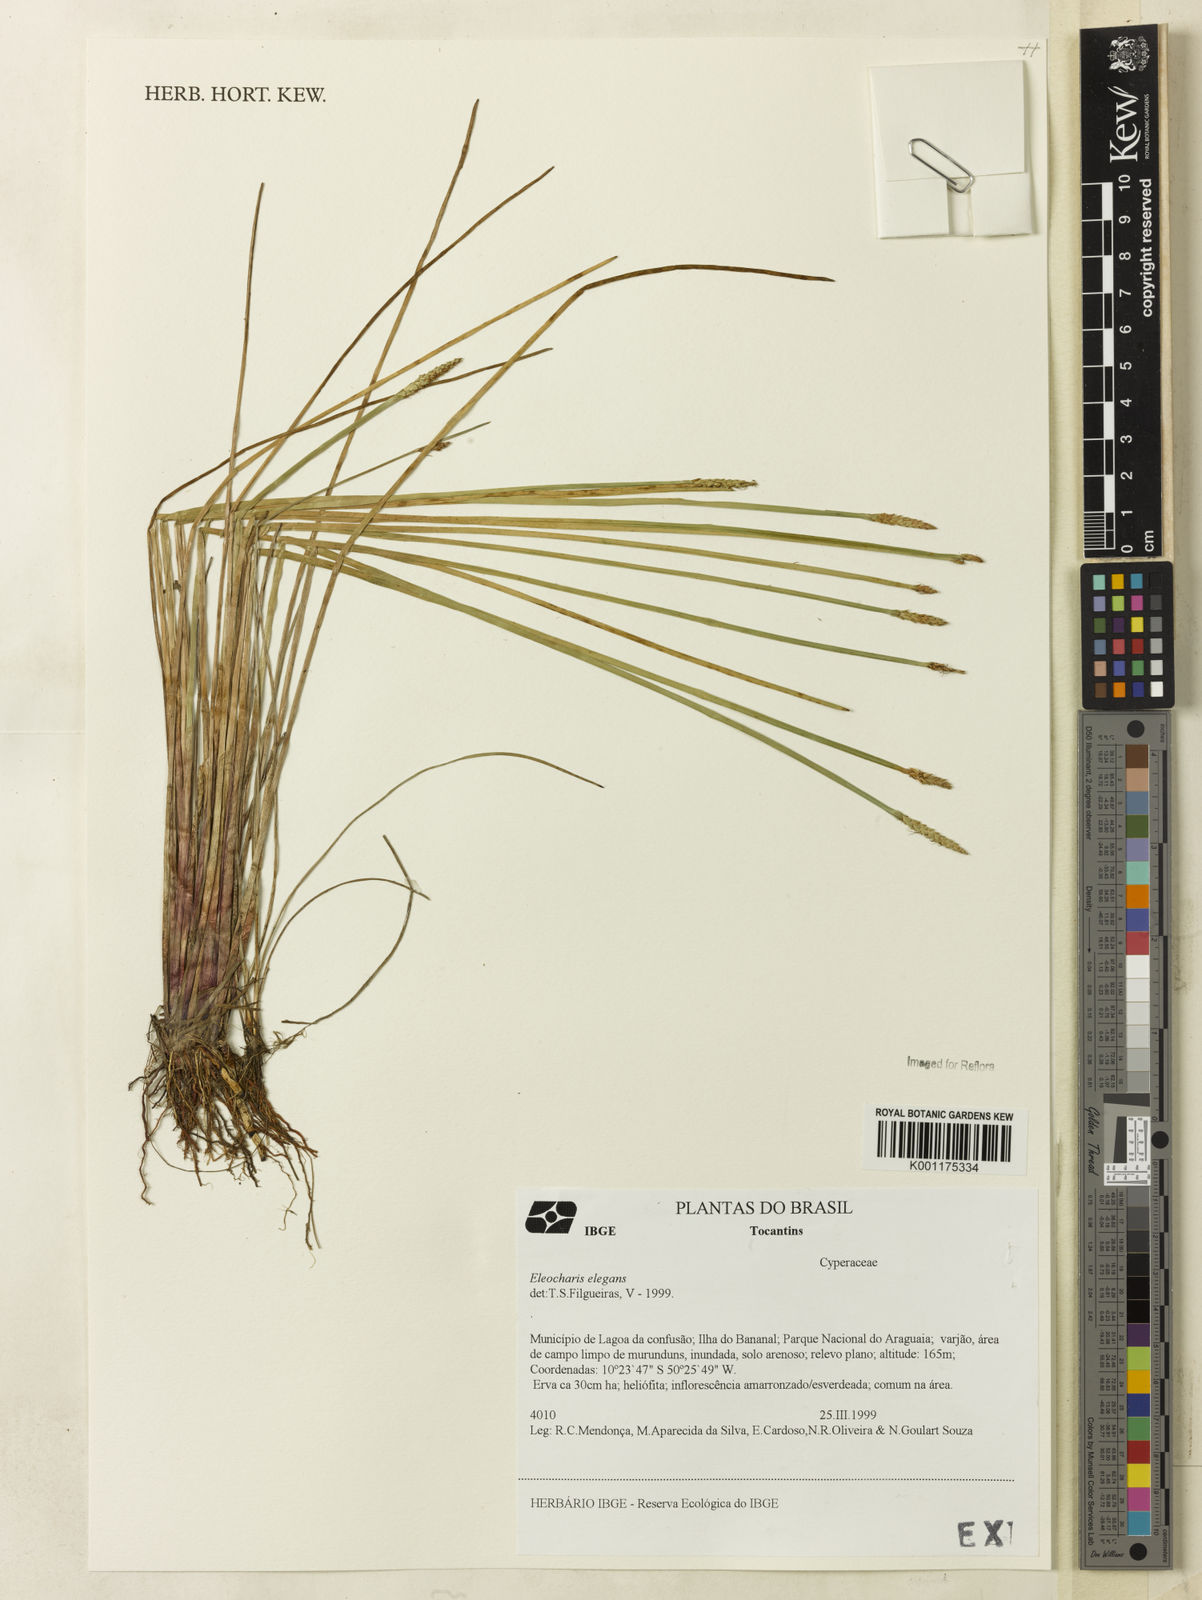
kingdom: Plantae
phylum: Tracheophyta
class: Liliopsida
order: Poales
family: Cyperaceae
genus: Eleocharis
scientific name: Eleocharis elegans
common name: Elegant spike-rush
